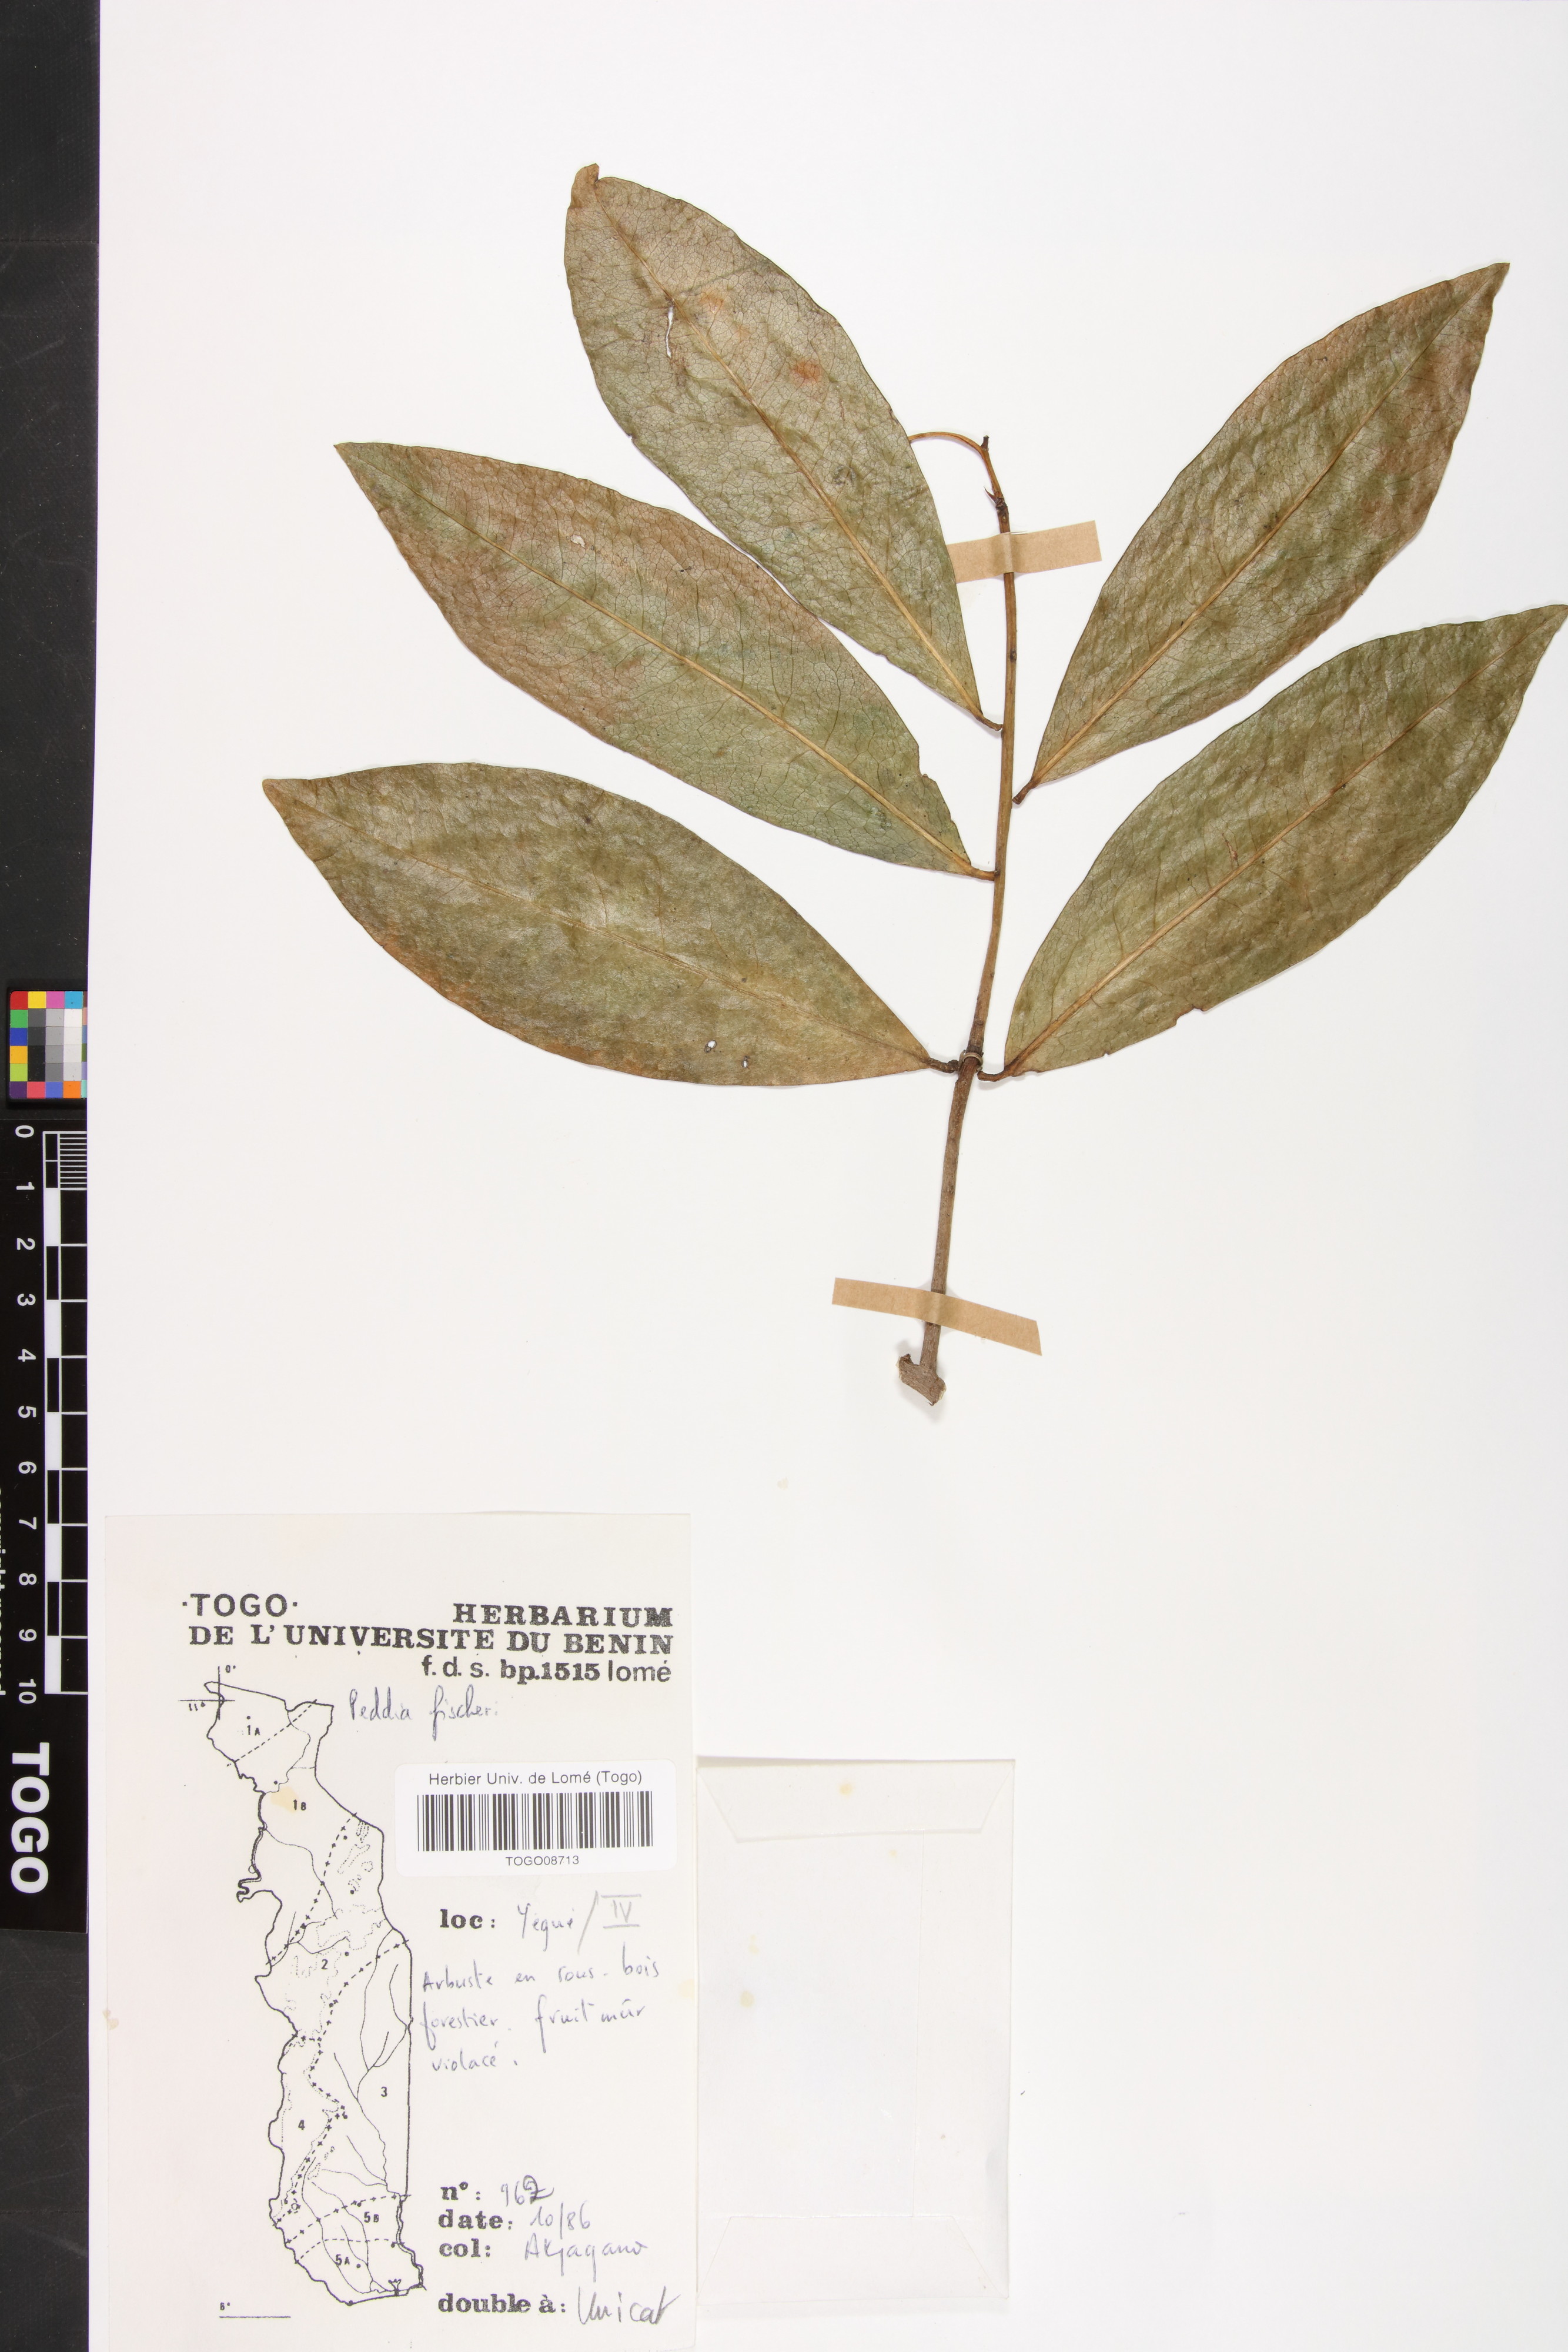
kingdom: Plantae
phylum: Tracheophyta
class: Magnoliopsida
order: Malvales
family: Thymelaeaceae
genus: Peddiea
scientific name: Peddiea fischeri
